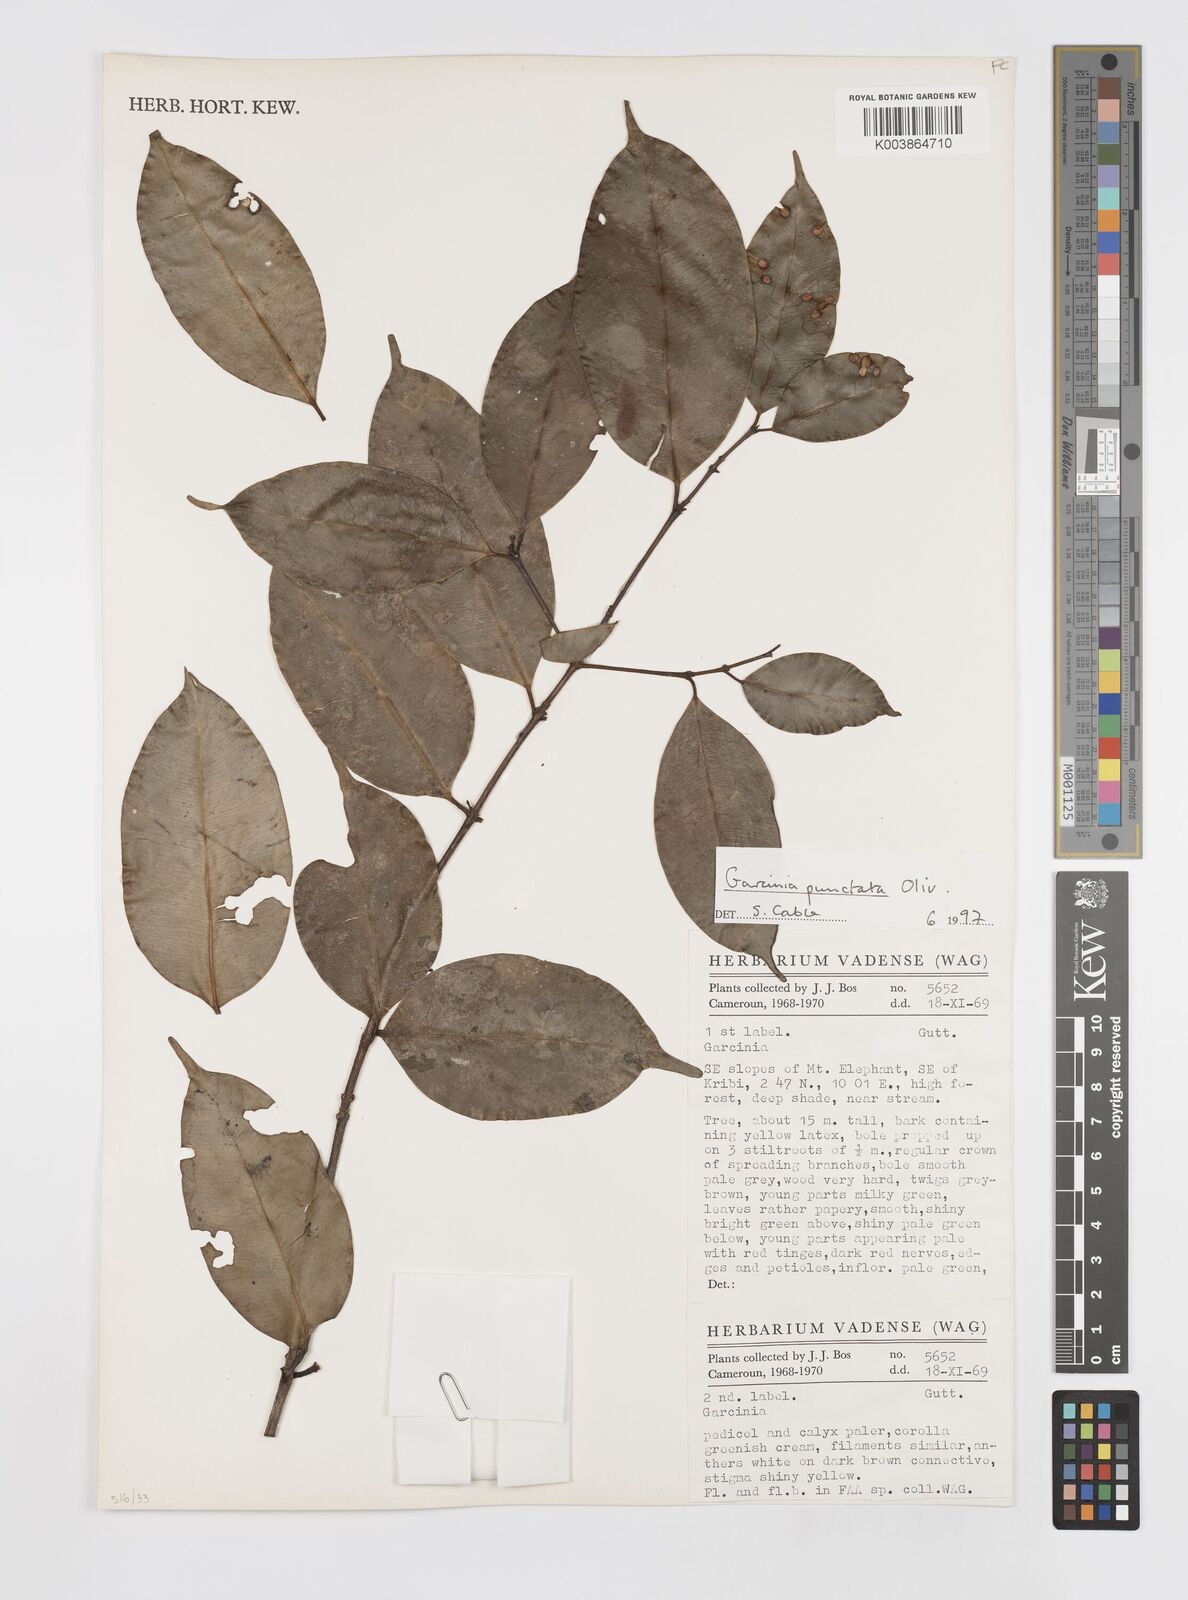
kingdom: Plantae
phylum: Tracheophyta
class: Magnoliopsida
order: Malpighiales
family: Clusiaceae
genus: Garcinia
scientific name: Garcinia punctata
